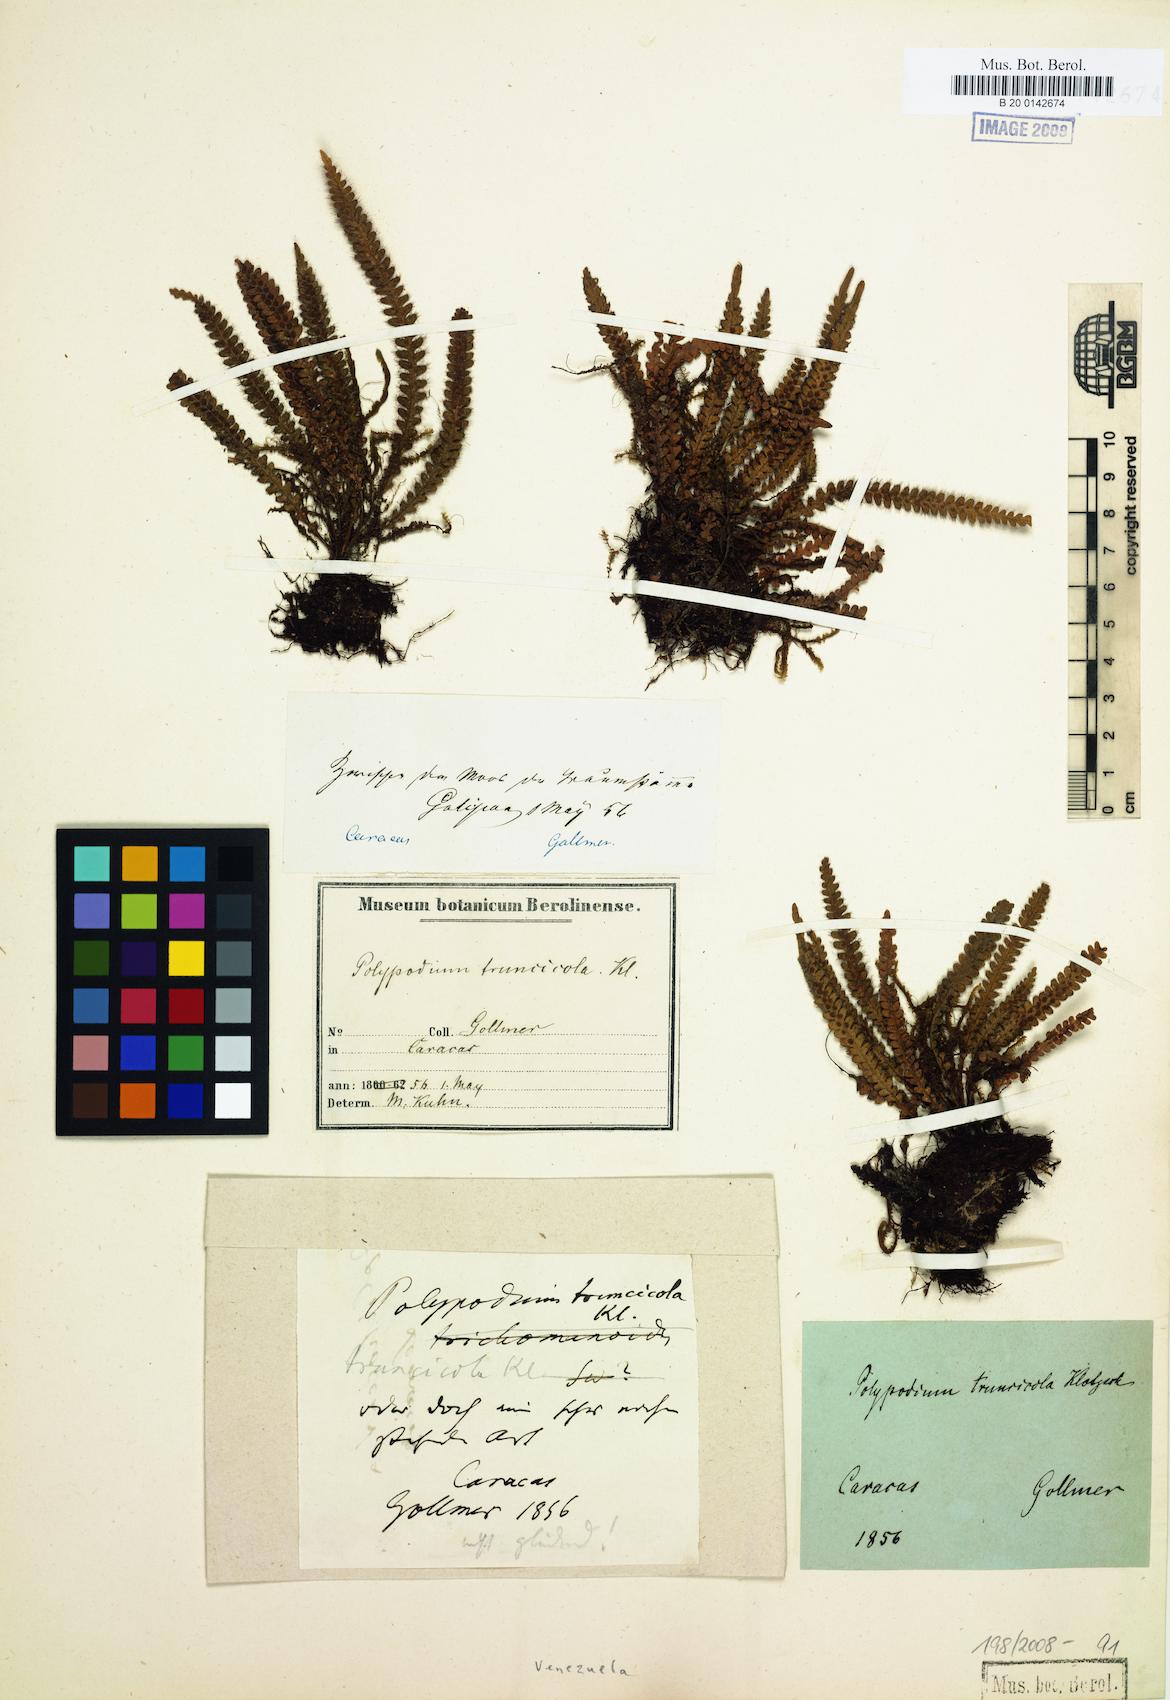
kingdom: Plantae
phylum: Tracheophyta
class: Polypodiopsida
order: Polypodiales
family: Polypodiaceae
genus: Moranopteris
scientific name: Moranopteris truncicola
